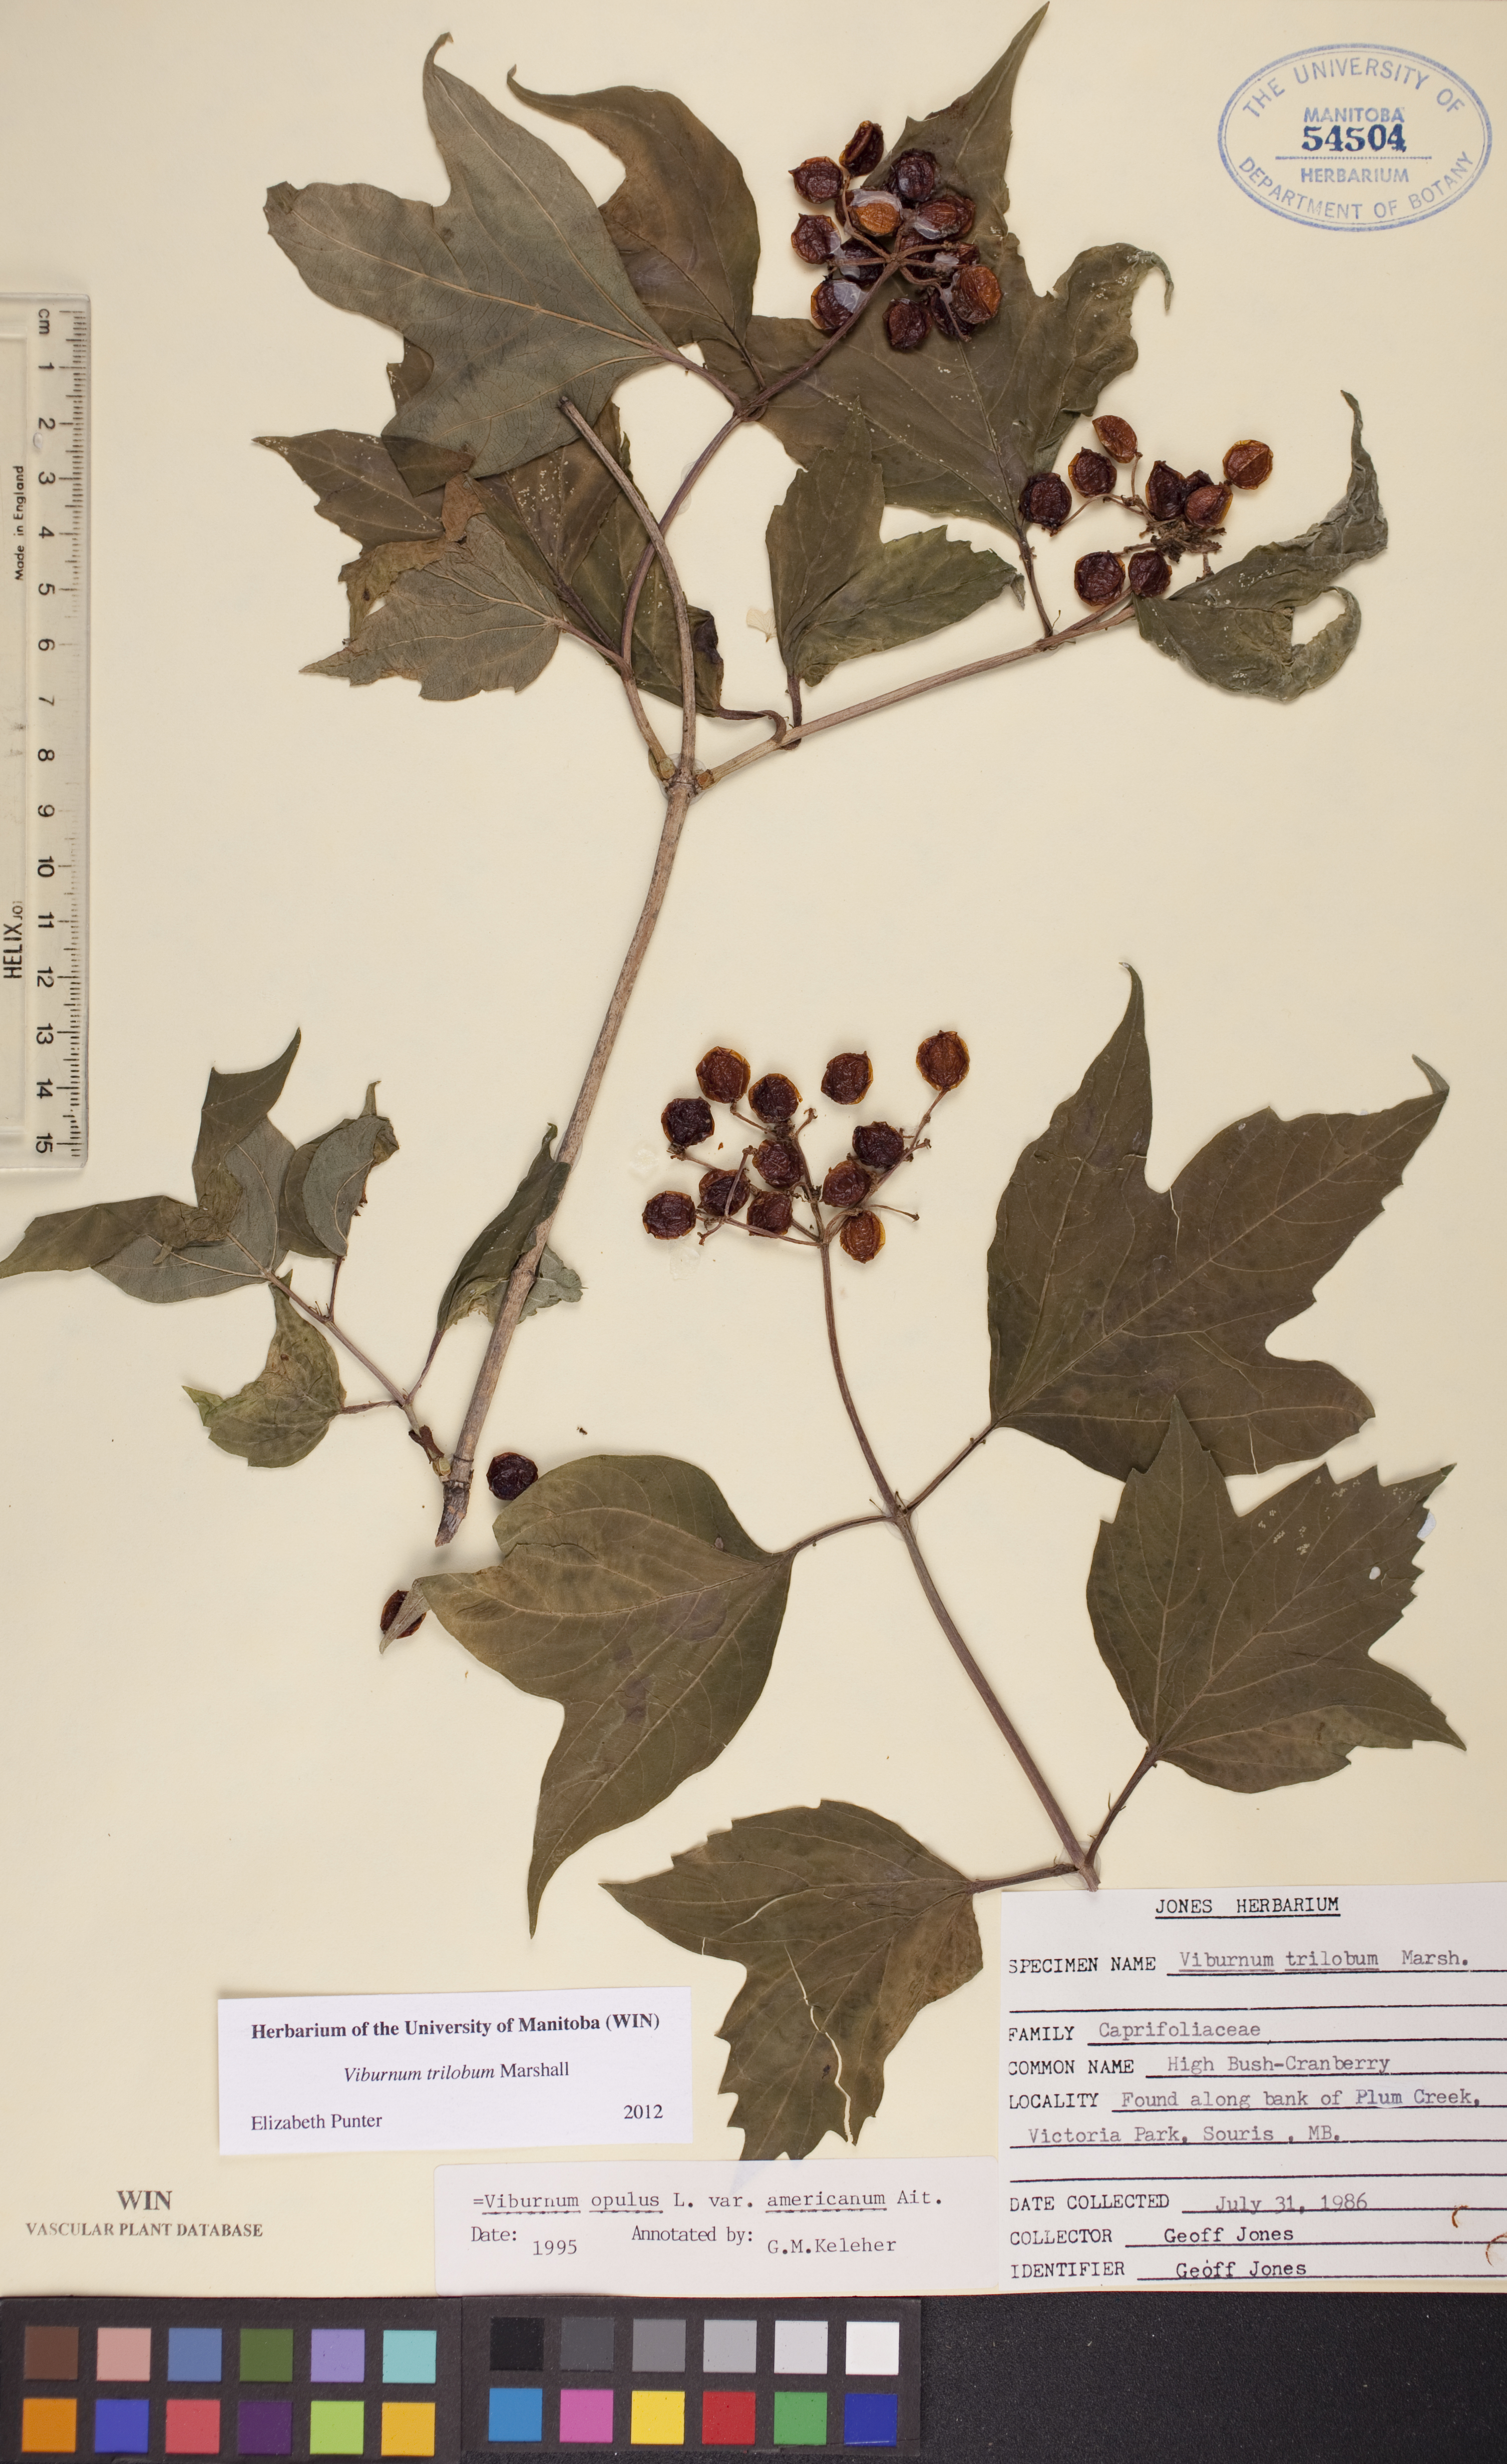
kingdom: Plantae
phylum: Tracheophyta
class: Magnoliopsida
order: Dipsacales
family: Viburnaceae
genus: Viburnum
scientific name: Viburnum trilobum
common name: American cranberrybush
